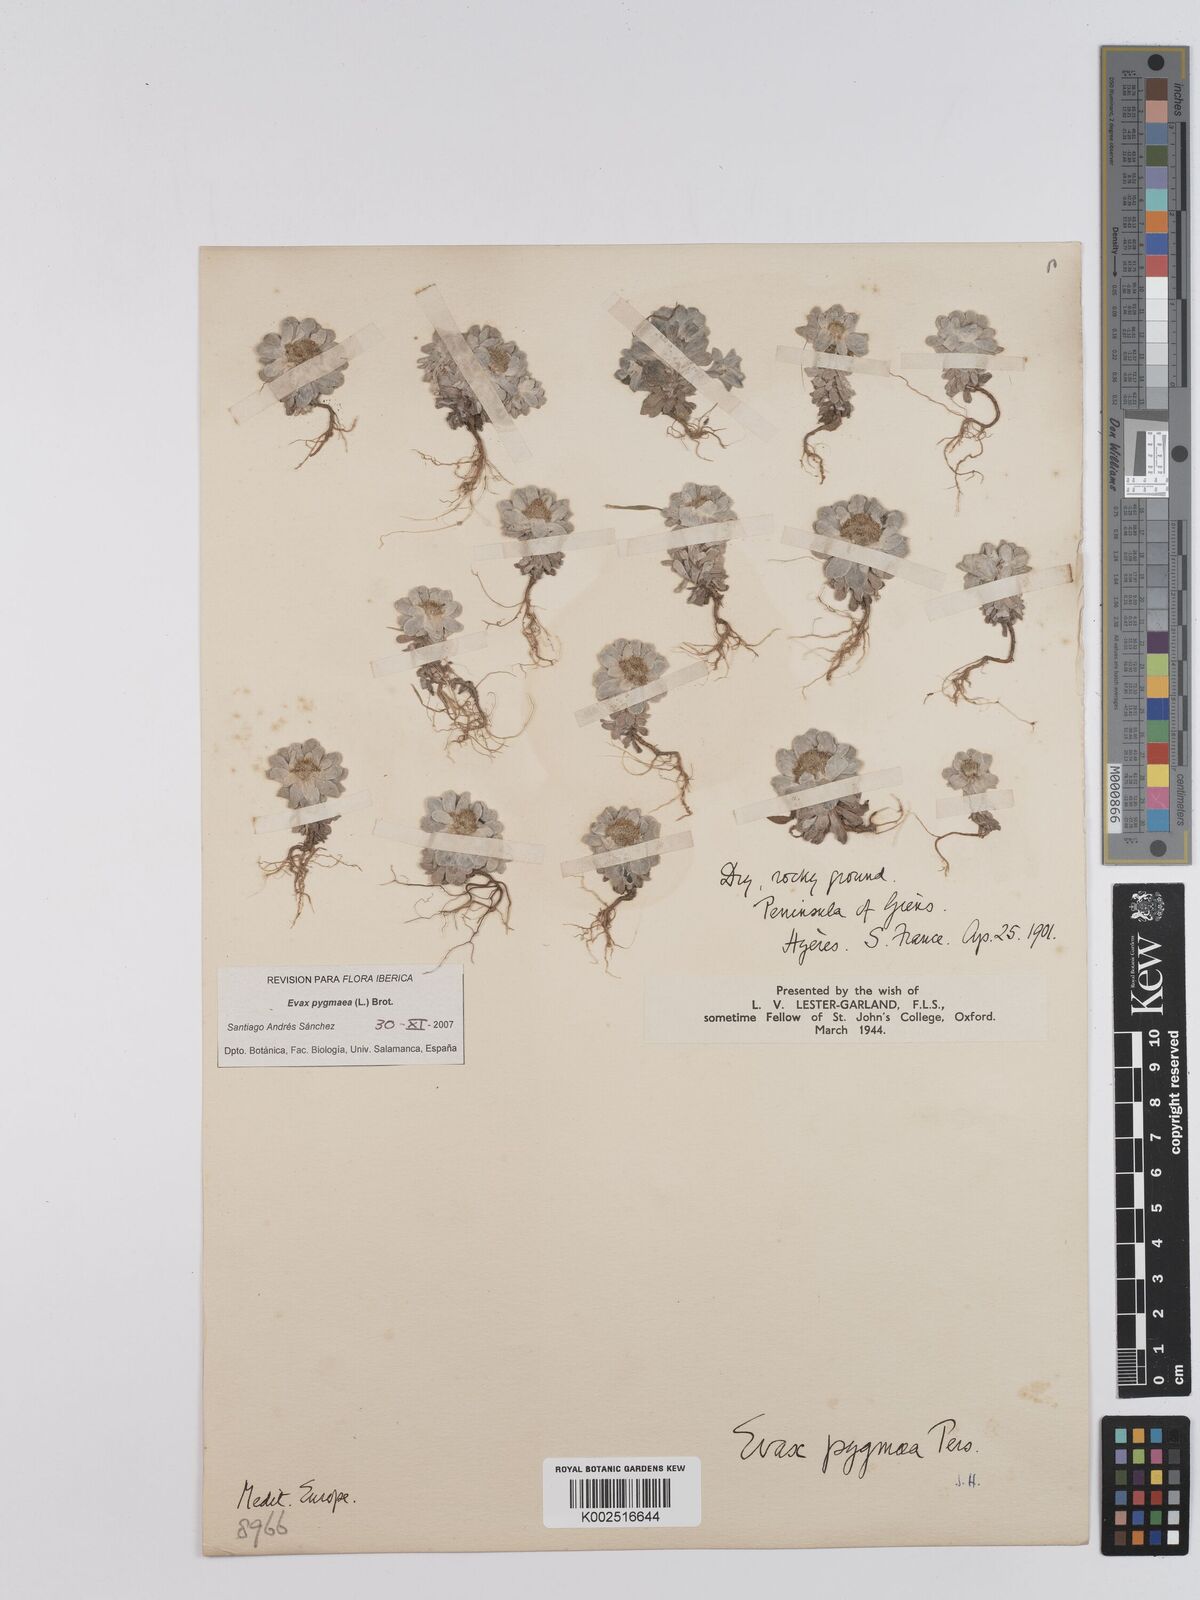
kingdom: Plantae
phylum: Tracheophyta
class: Magnoliopsida
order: Asterales
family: Asteraceae
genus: Filago
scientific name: Filago pygmaea
